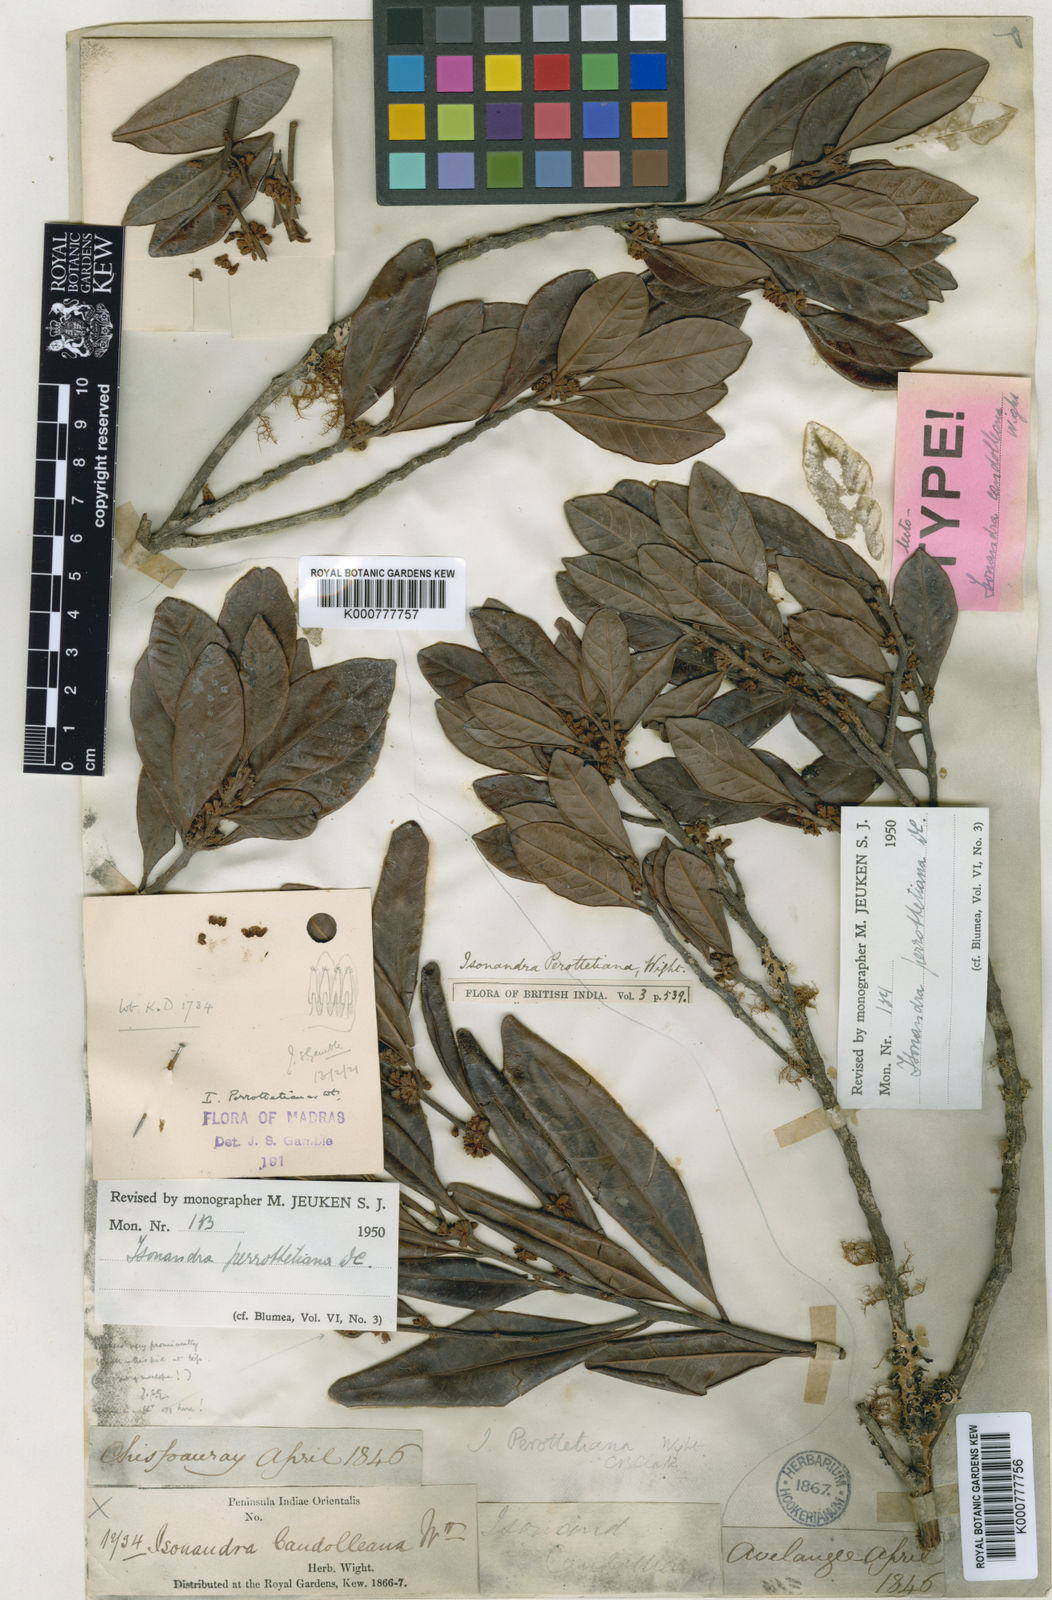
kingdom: Plantae
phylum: Tracheophyta
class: Magnoliopsida
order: Ericales
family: Sapotaceae
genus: Isonandra
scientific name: Isonandra perrottetiana
